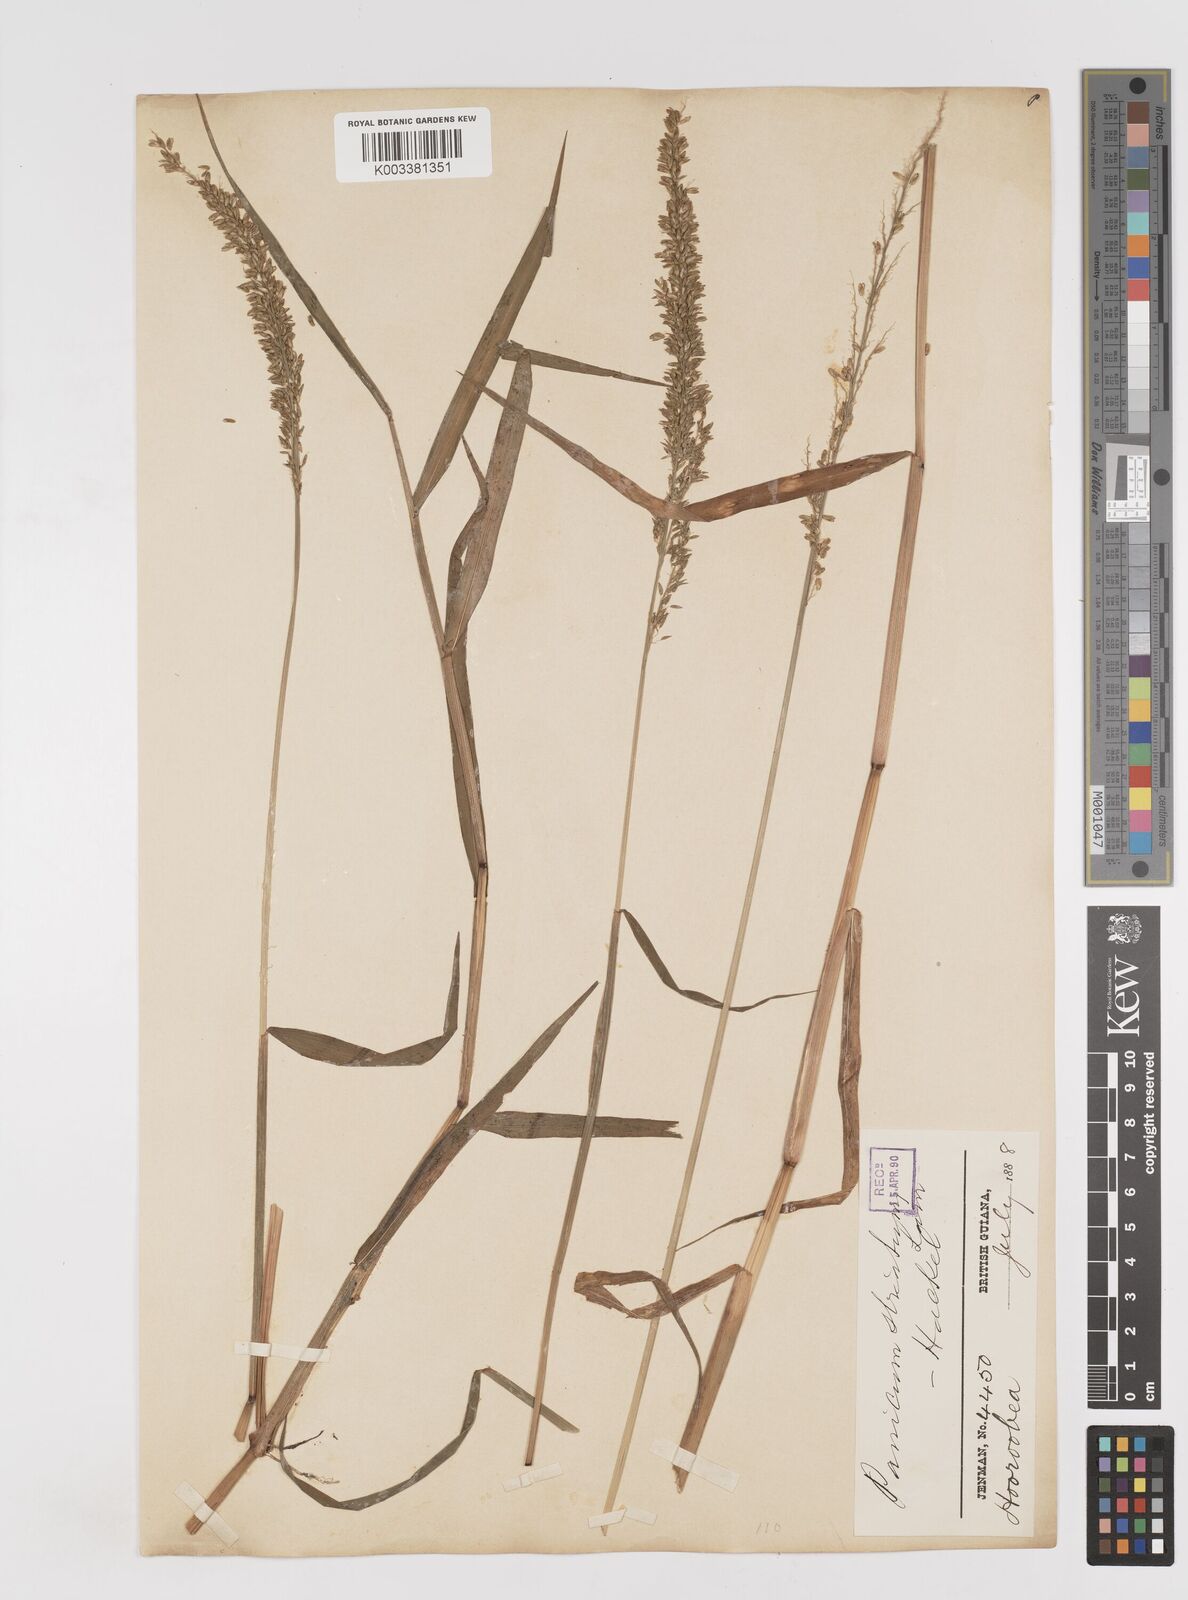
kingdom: Plantae
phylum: Tracheophyta
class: Liliopsida
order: Poales
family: Poaceae
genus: Sacciolepis
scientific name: Sacciolepis striata
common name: American cupscale
